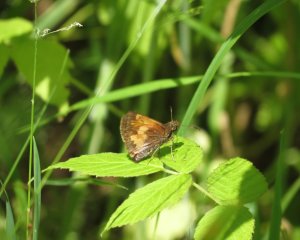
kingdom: Animalia
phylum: Arthropoda
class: Insecta
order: Lepidoptera
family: Hesperiidae
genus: Lon
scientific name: Lon hobomok
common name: Hobomok Skipper
